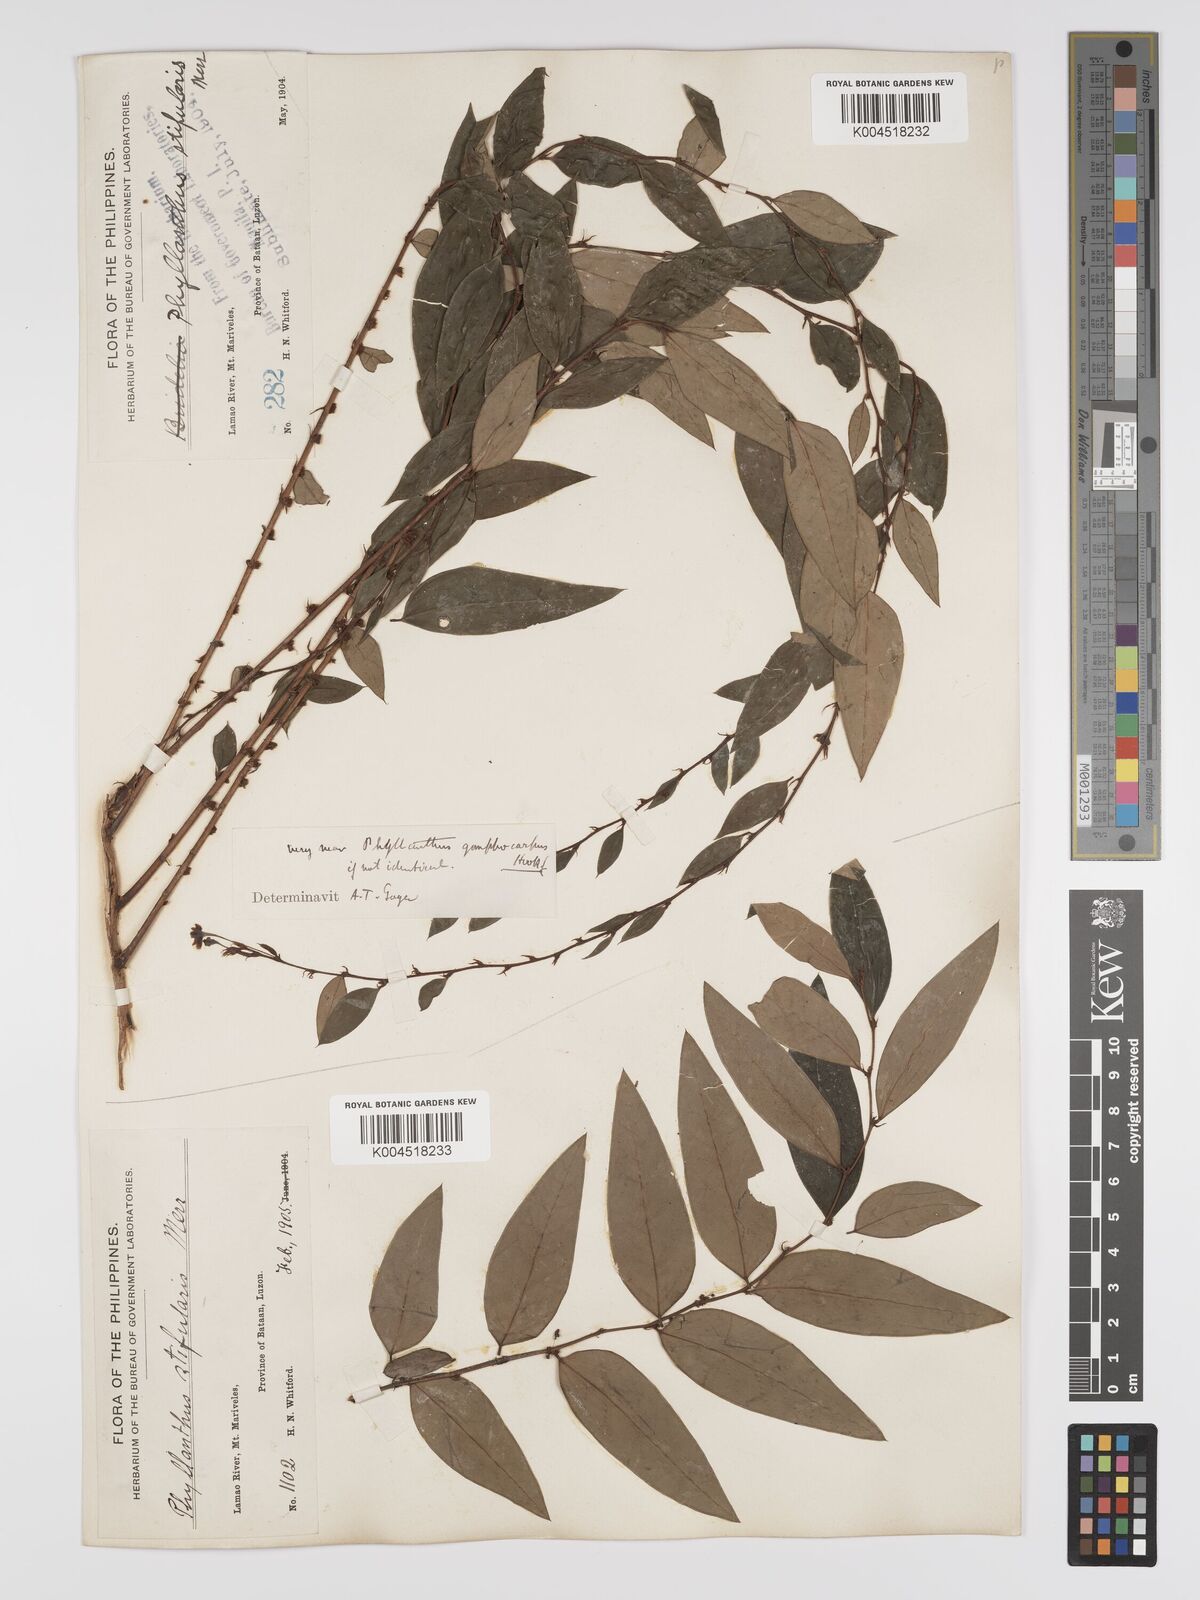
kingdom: Plantae
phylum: Tracheophyta
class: Magnoliopsida
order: Malpighiales
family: Phyllanthaceae
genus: Phyllanthus
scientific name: Phyllanthus stipularis
